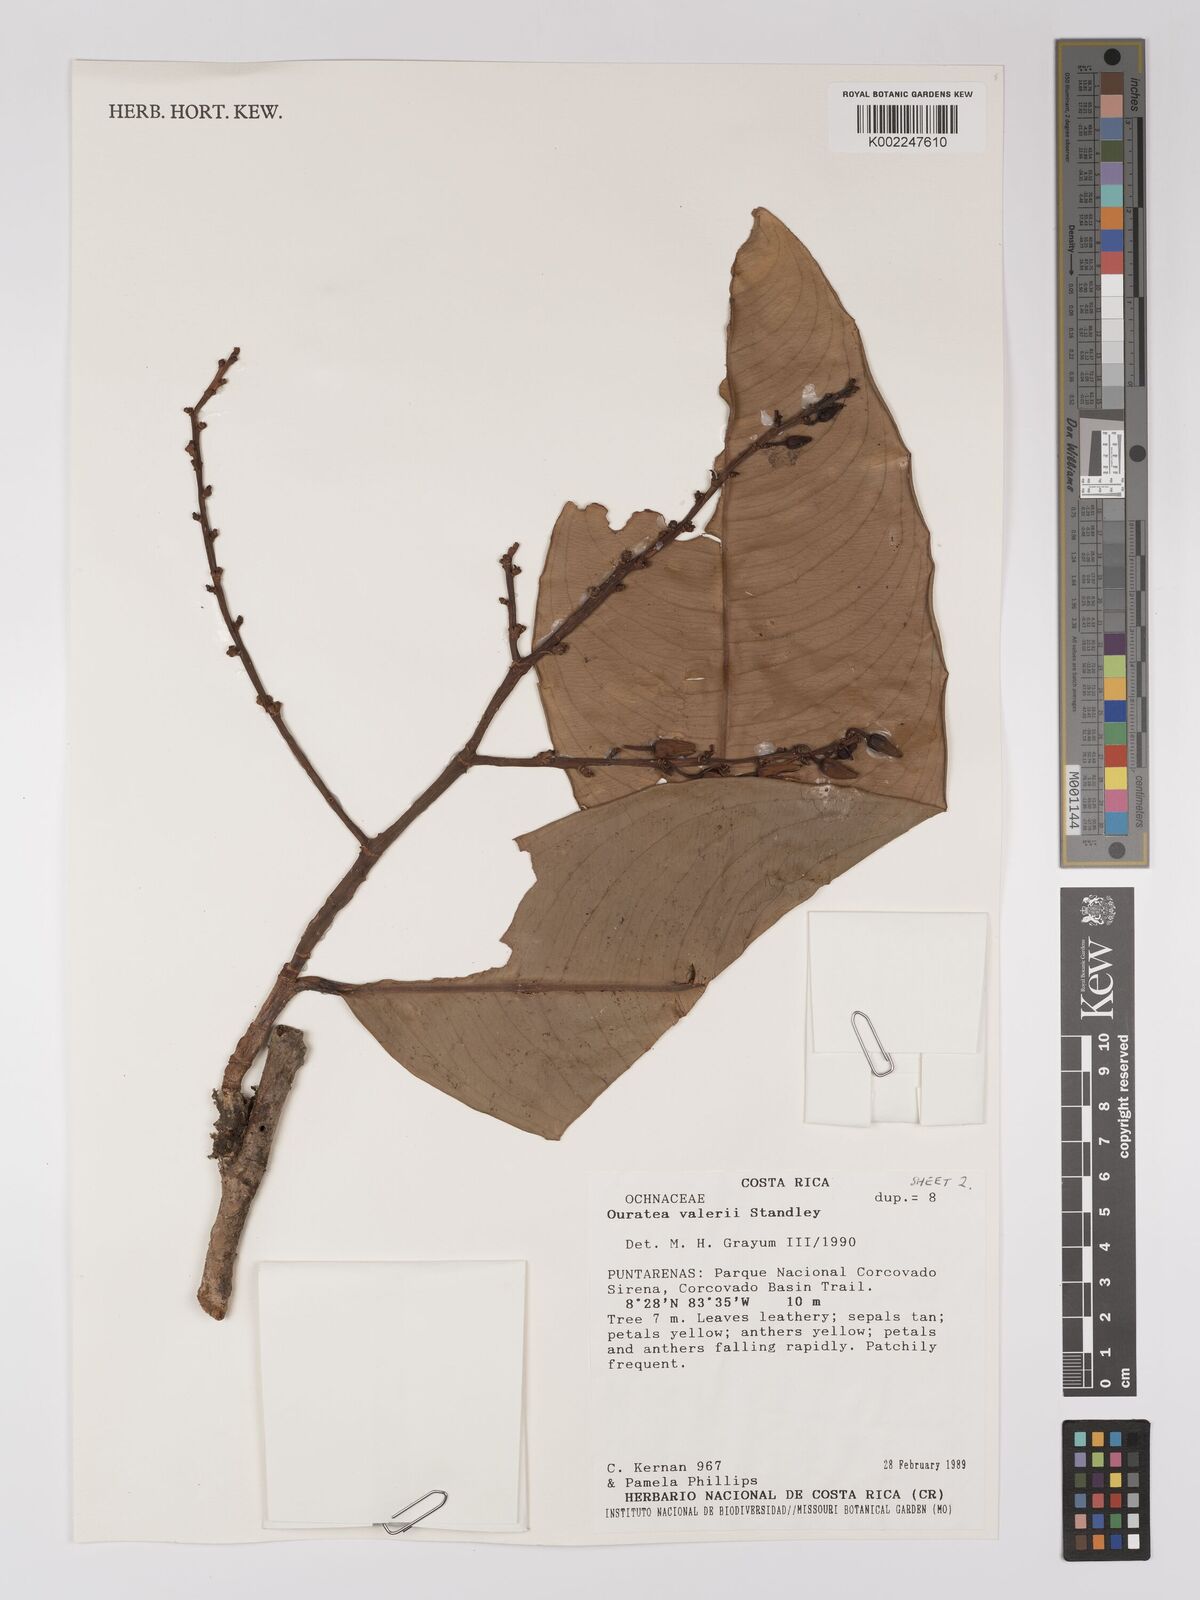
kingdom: Plantae
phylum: Tracheophyta
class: Magnoliopsida
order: Malpighiales
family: Ochnaceae
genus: Ouratea
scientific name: Ouratea valerioi
